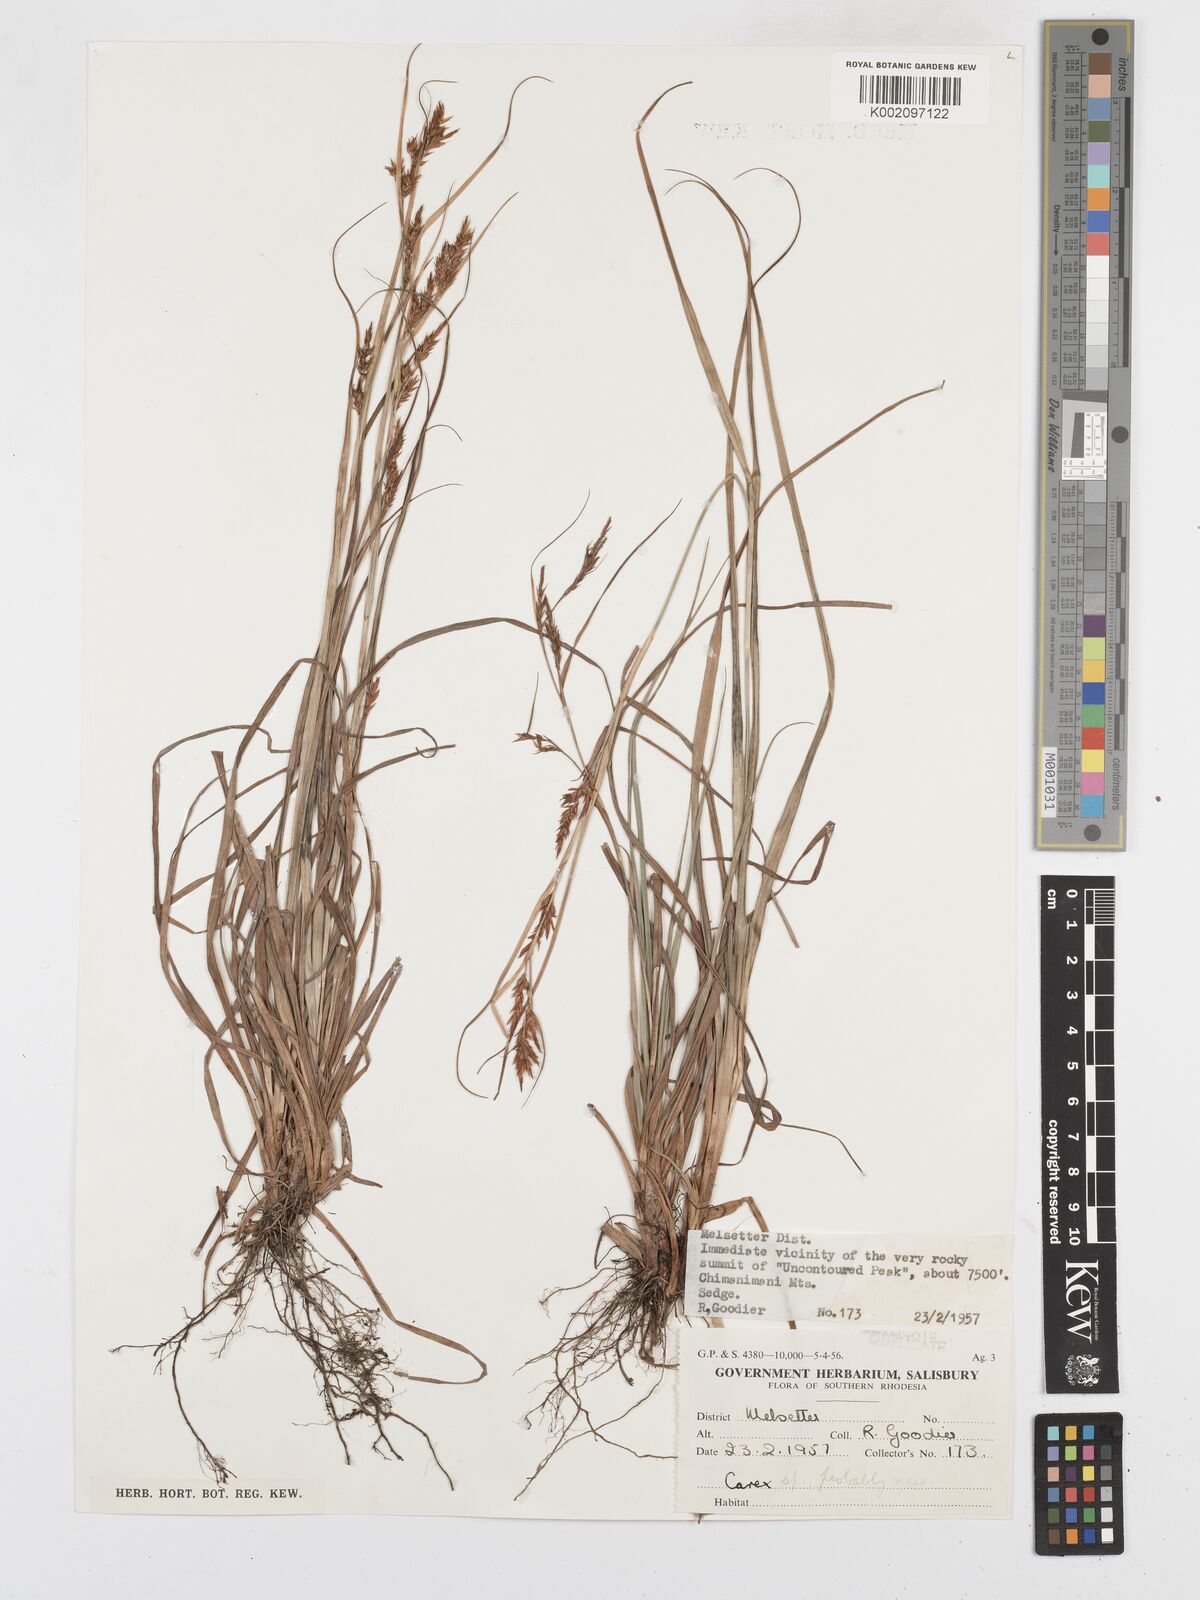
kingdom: Plantae
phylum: Tracheophyta
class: Liliopsida
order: Poales
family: Cyperaceae
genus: Carex
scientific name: Carex steudneri
